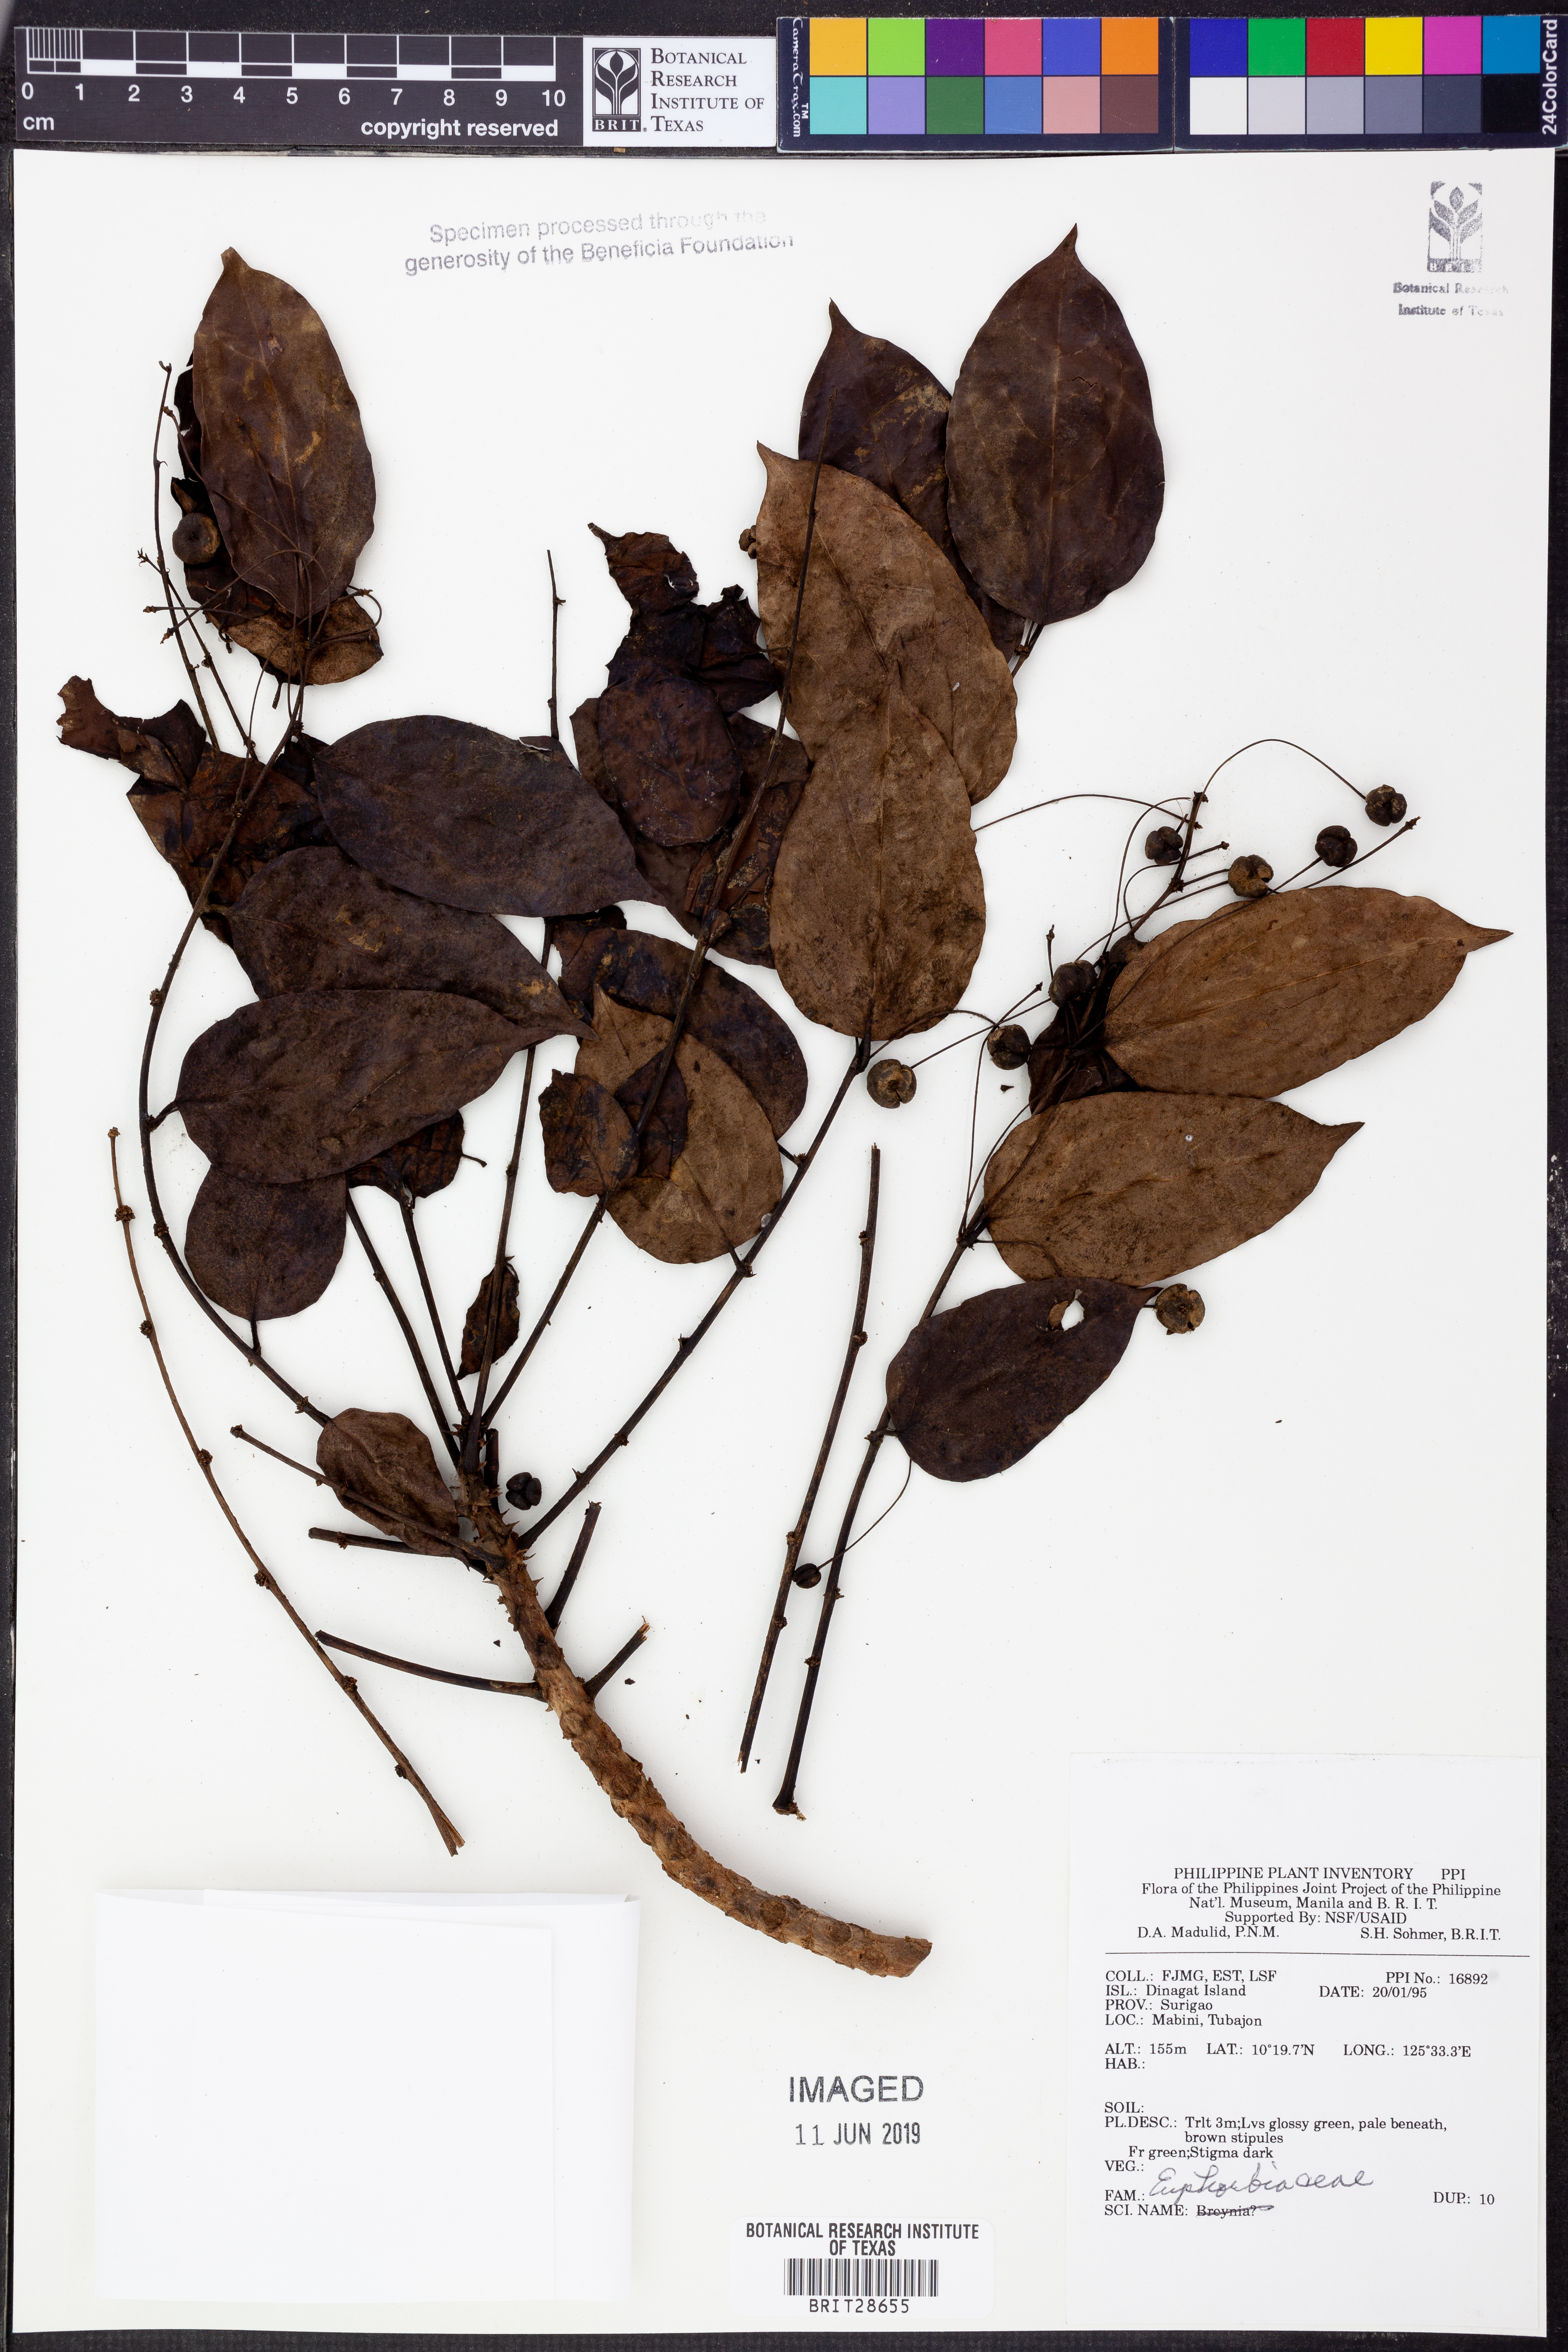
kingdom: Plantae
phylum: Tracheophyta
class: Magnoliopsida
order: Malpighiales
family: Euphorbiaceae
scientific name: Euphorbiaceae
